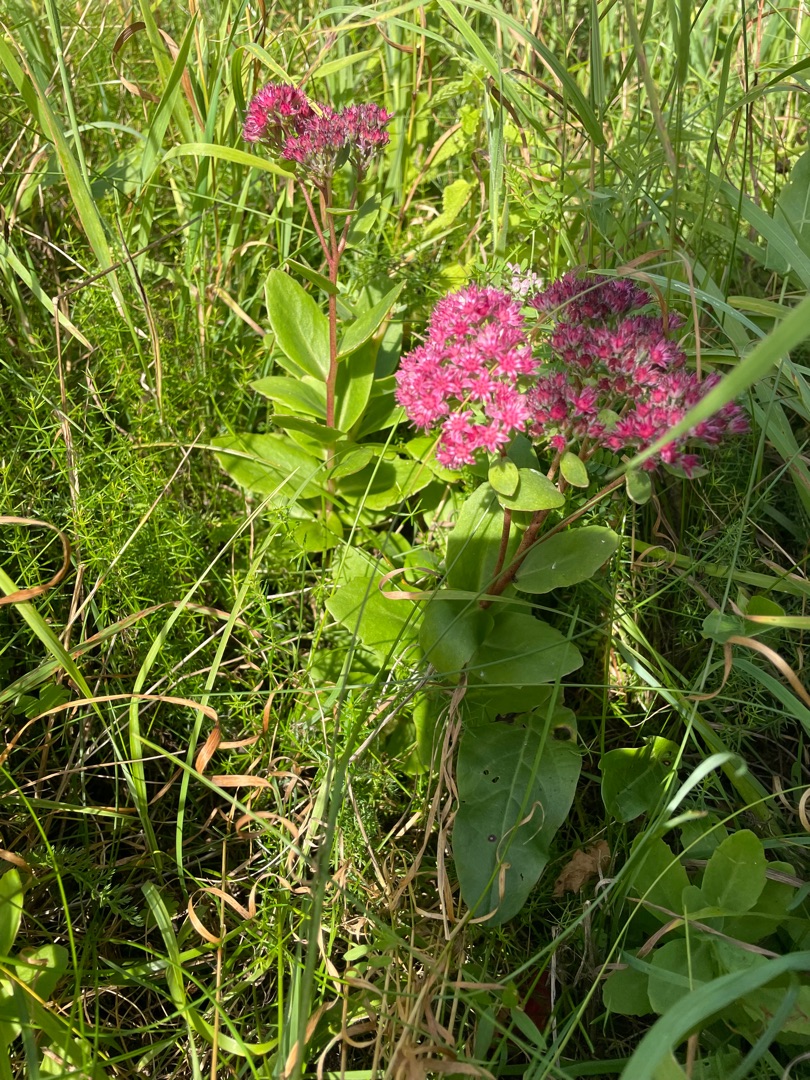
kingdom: Plantae
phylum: Tracheophyta
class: Magnoliopsida
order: Saxifragales
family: Crassulaceae
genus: Hylotelephium
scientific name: Hylotelephium telephium
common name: Sankthansurt
